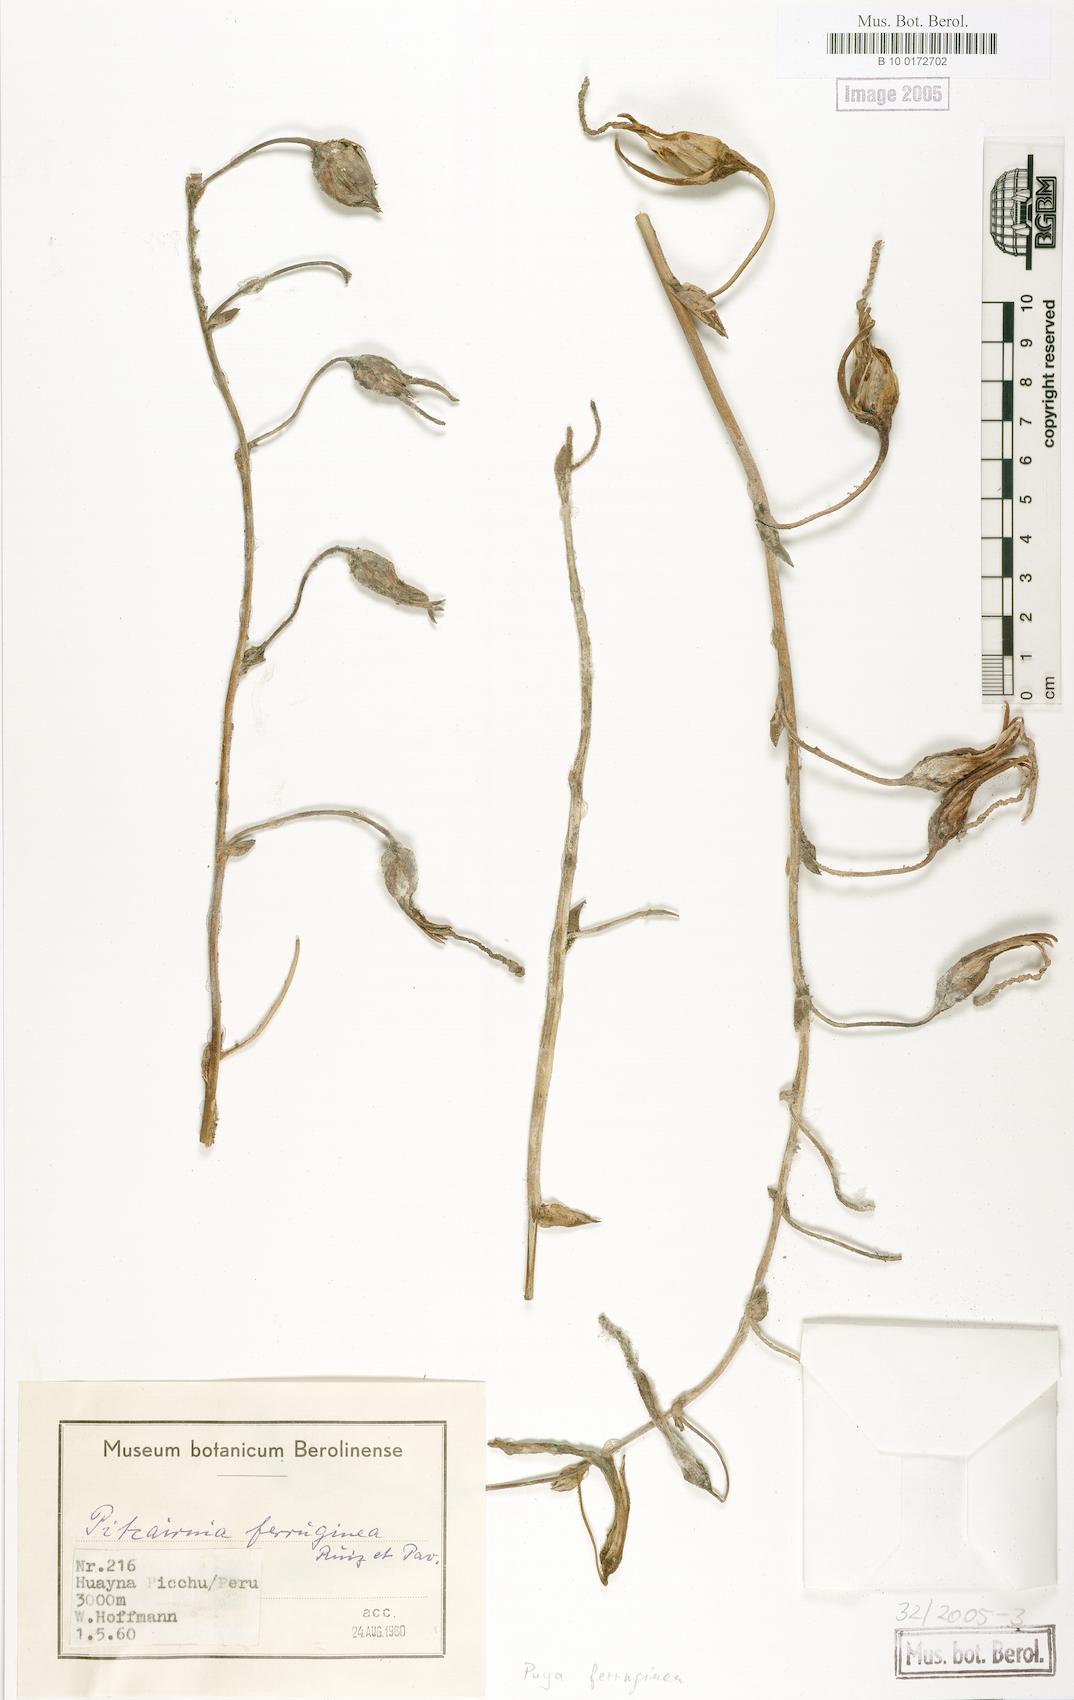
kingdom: Plantae
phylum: Tracheophyta
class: Liliopsida
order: Poales
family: Bromeliaceae
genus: Puya
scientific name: Puya ferruginea
